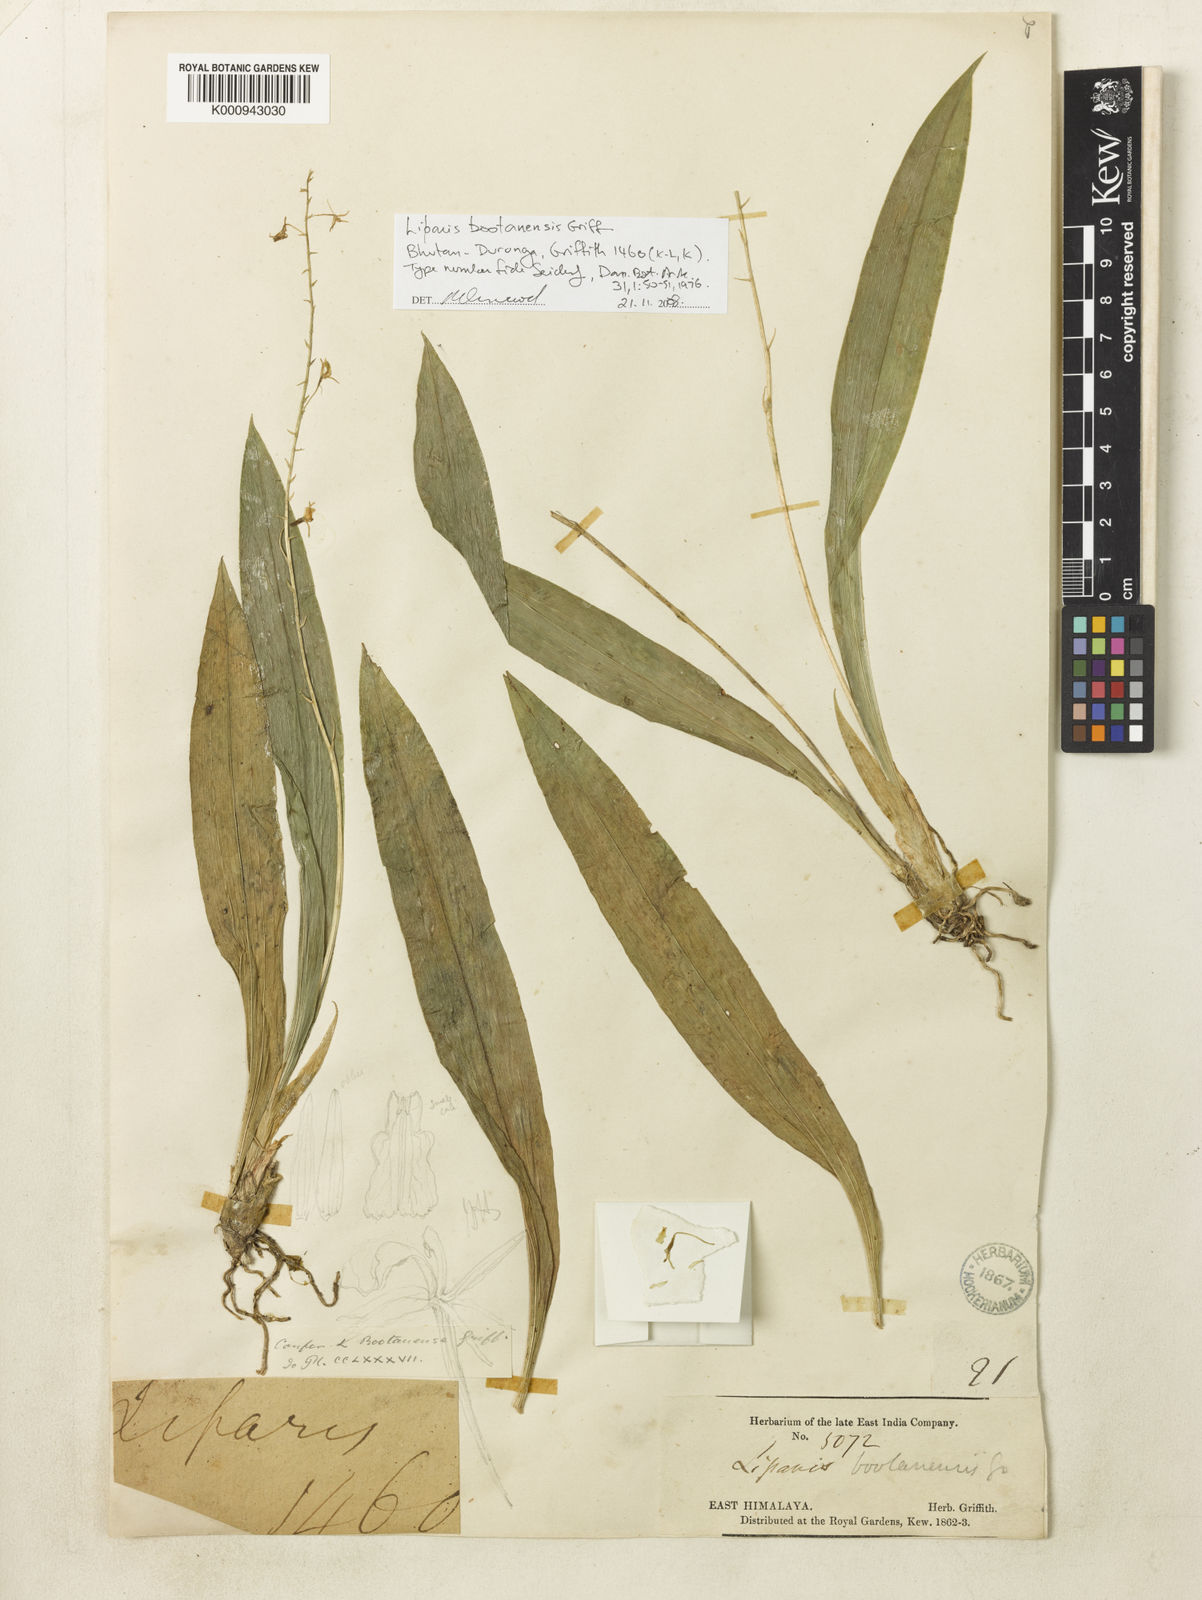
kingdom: Plantae
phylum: Tracheophyta
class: Liliopsida
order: Asparagales
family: Orchidaceae
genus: Liparis
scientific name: Liparis bootanensis
